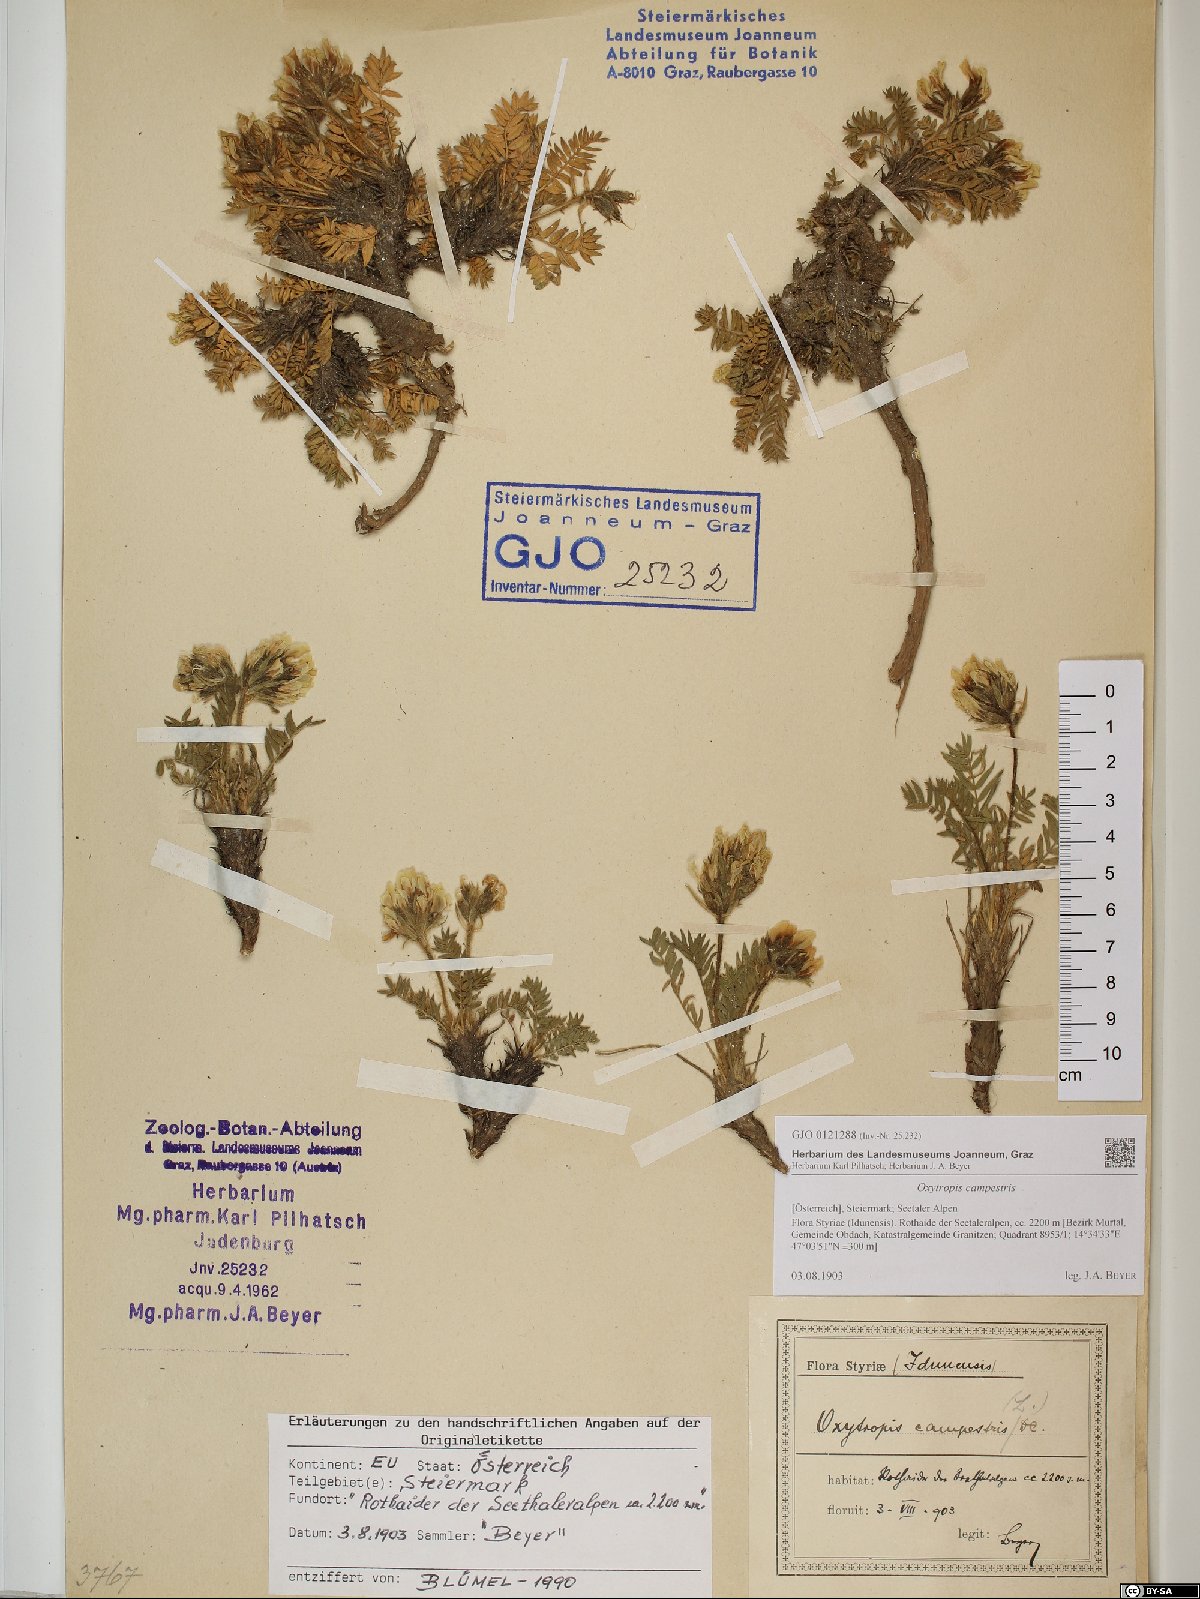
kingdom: Plantae
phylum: Tracheophyta
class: Magnoliopsida
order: Fabales
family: Fabaceae
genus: Oxytropis
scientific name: Oxytropis campestris
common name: Field locoweed
